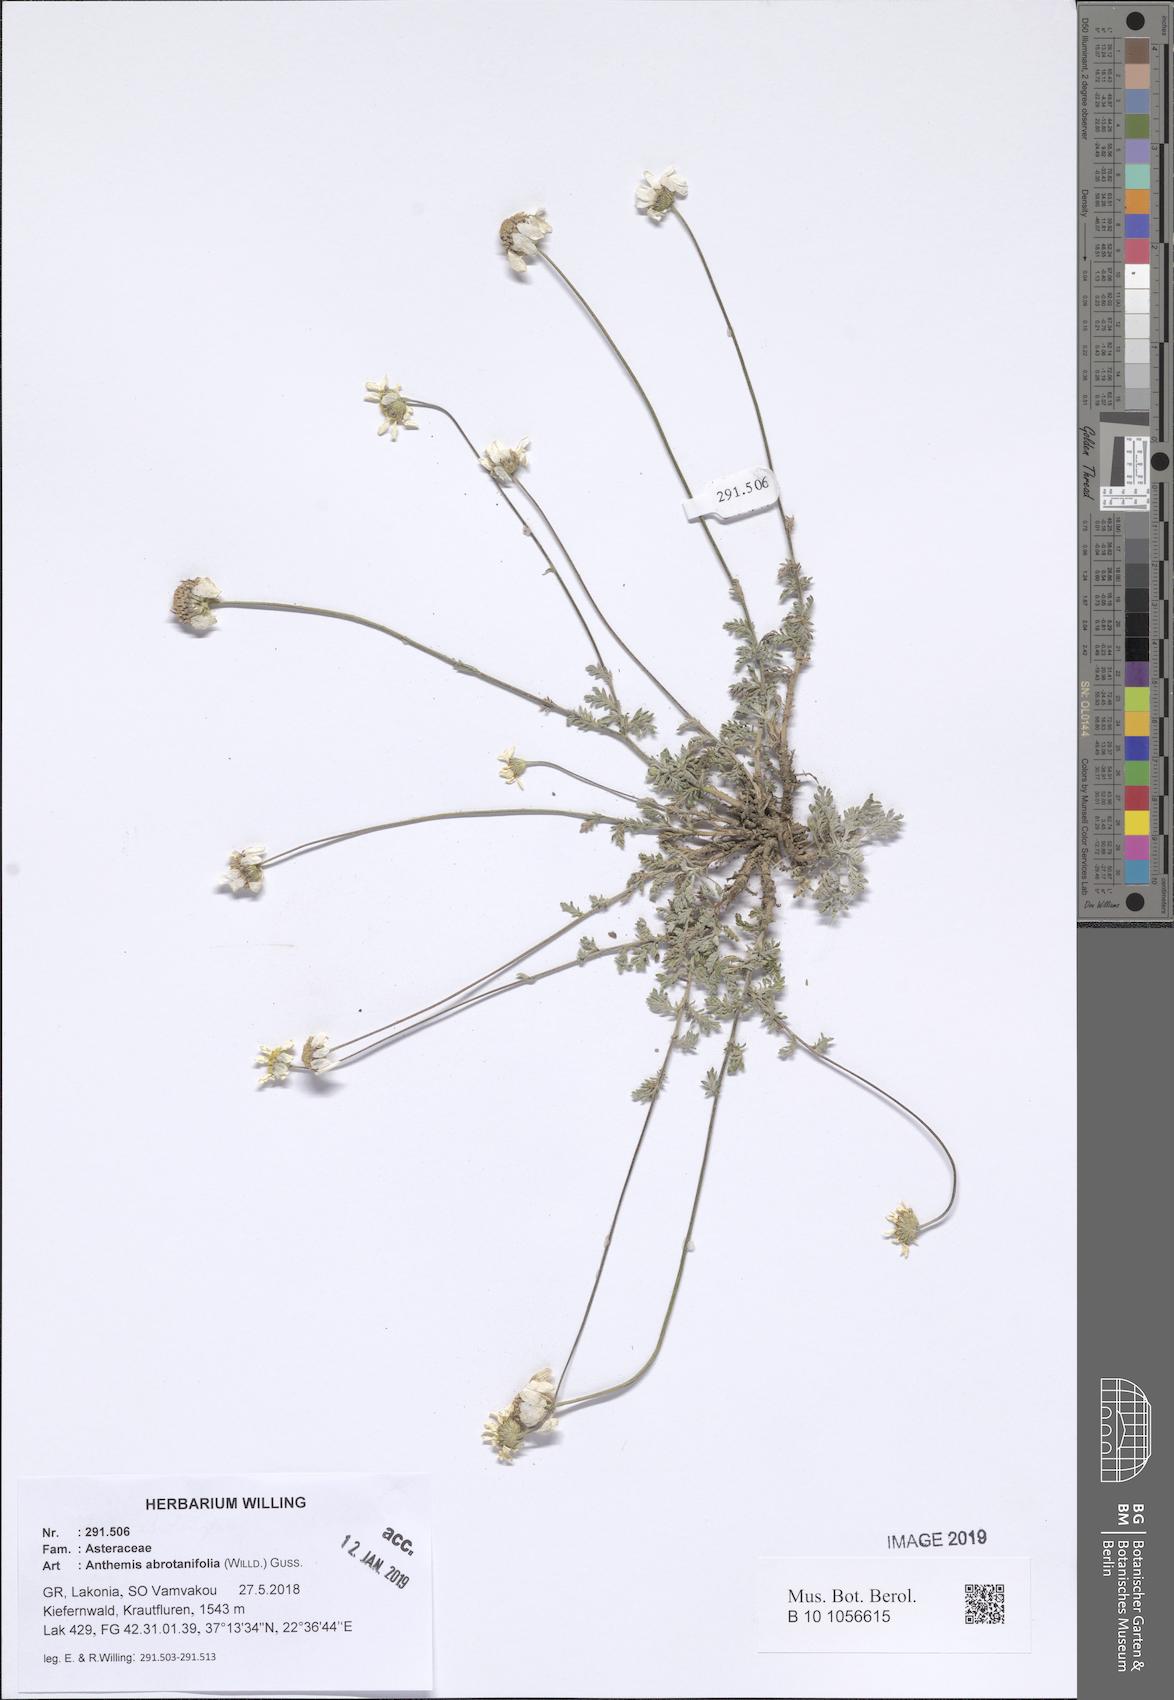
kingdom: Plantae
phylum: Tracheophyta
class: Magnoliopsida
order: Asterales
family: Asteraceae
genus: Anthemis
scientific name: Anthemis abrotanifolia
